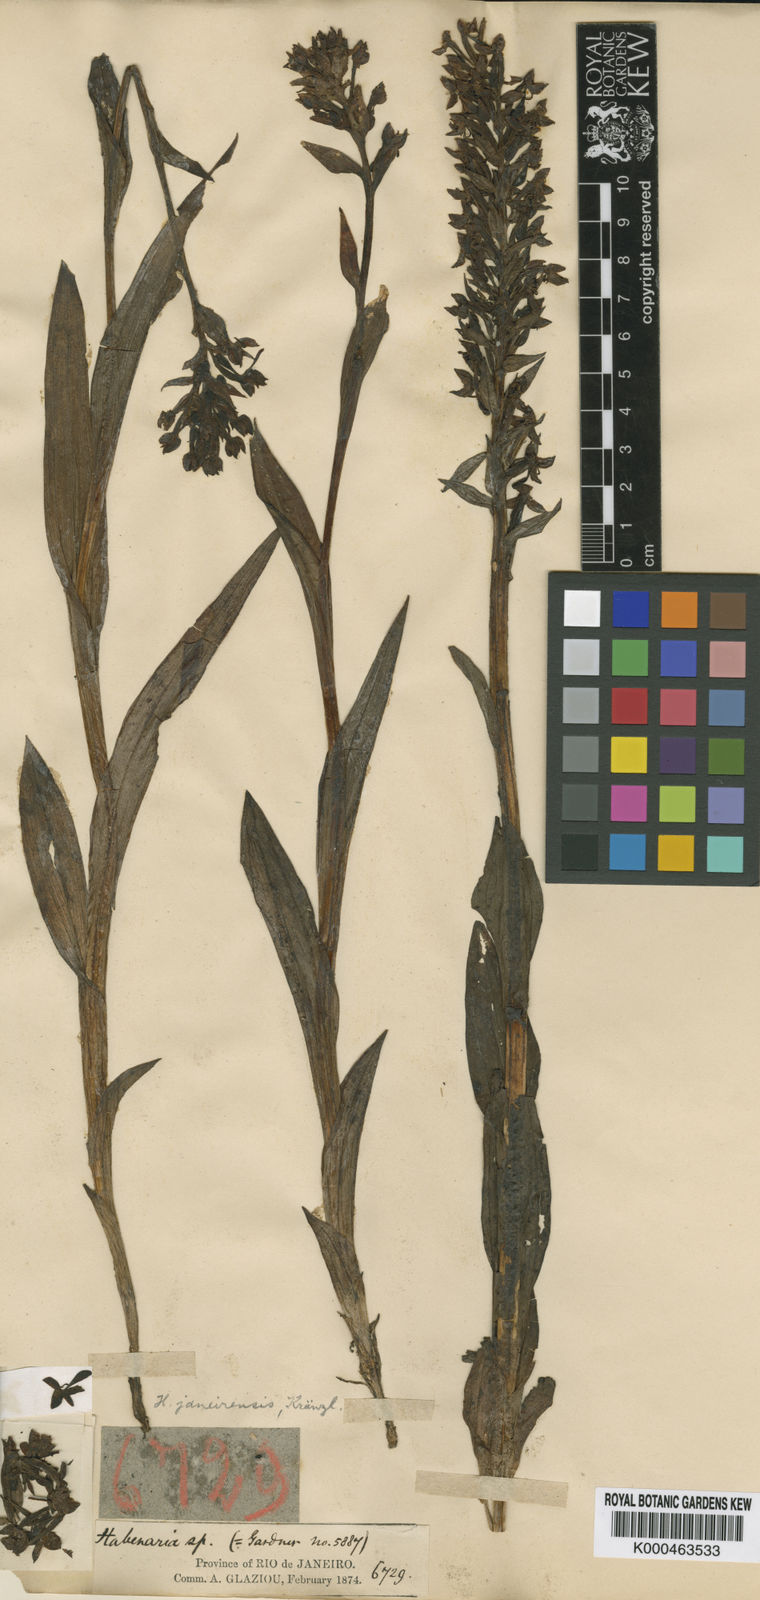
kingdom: Plantae
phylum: Tracheophyta
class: Liliopsida
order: Asparagales
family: Orchidaceae
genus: Habenaria
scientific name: Habenaria paranaensis
